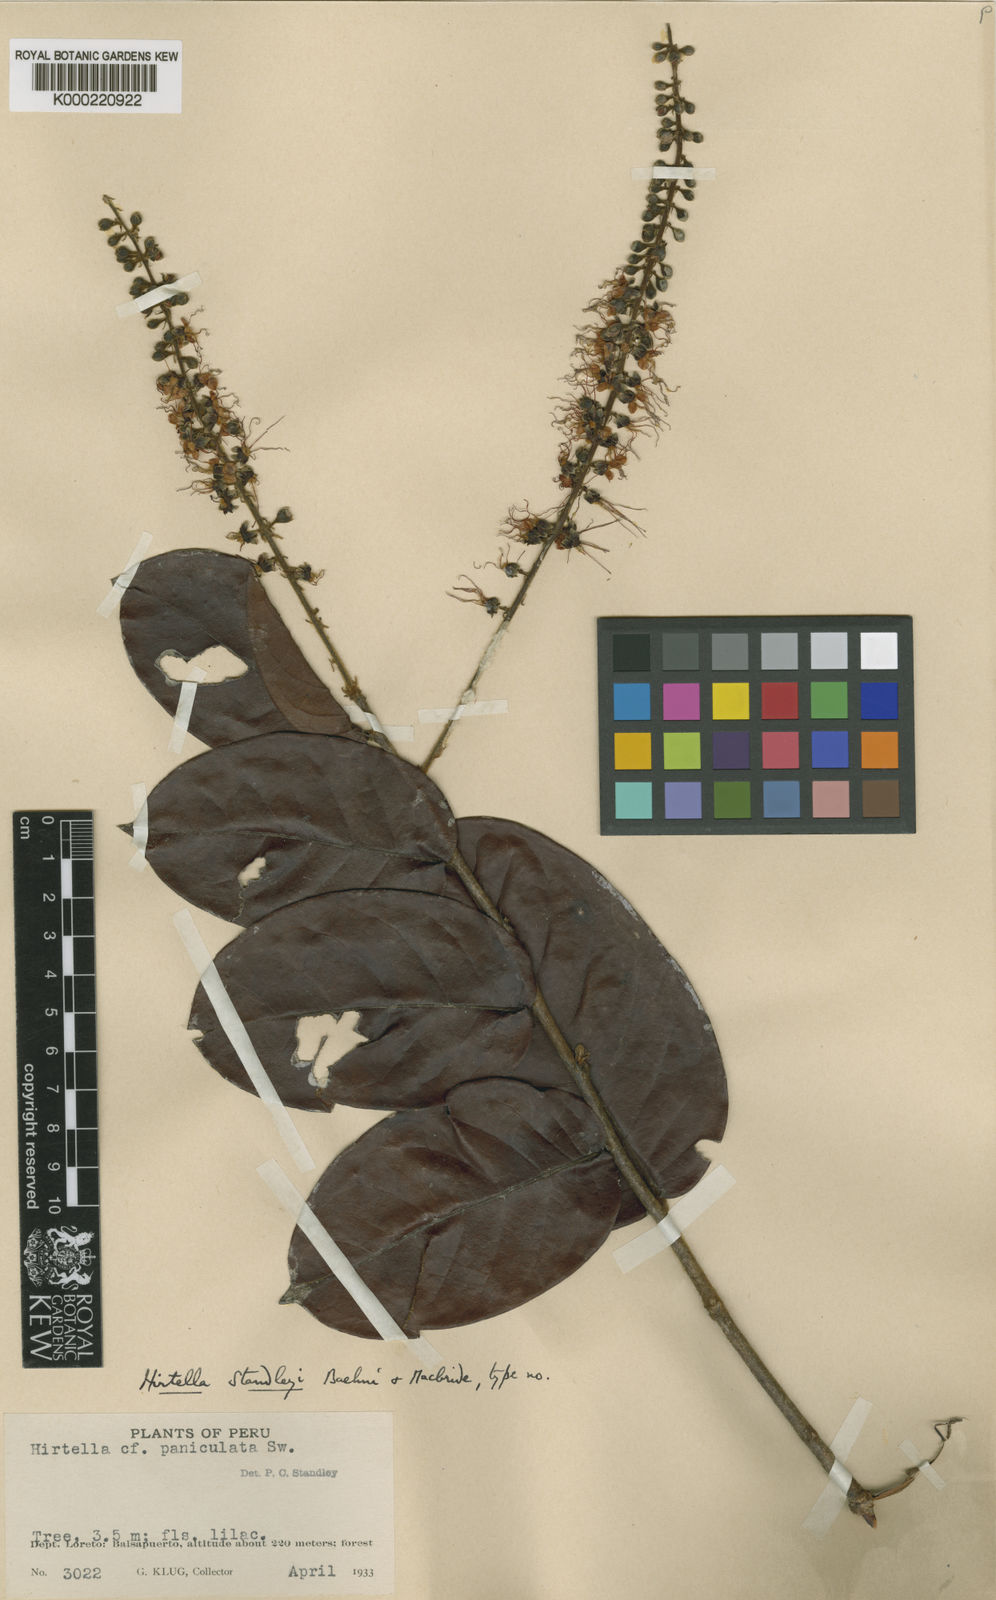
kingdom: Plantae
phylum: Tracheophyta
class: Magnoliopsida
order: Malpighiales
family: Chrysobalanaceae
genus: Hirtella
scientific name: Hirtella standleyi
